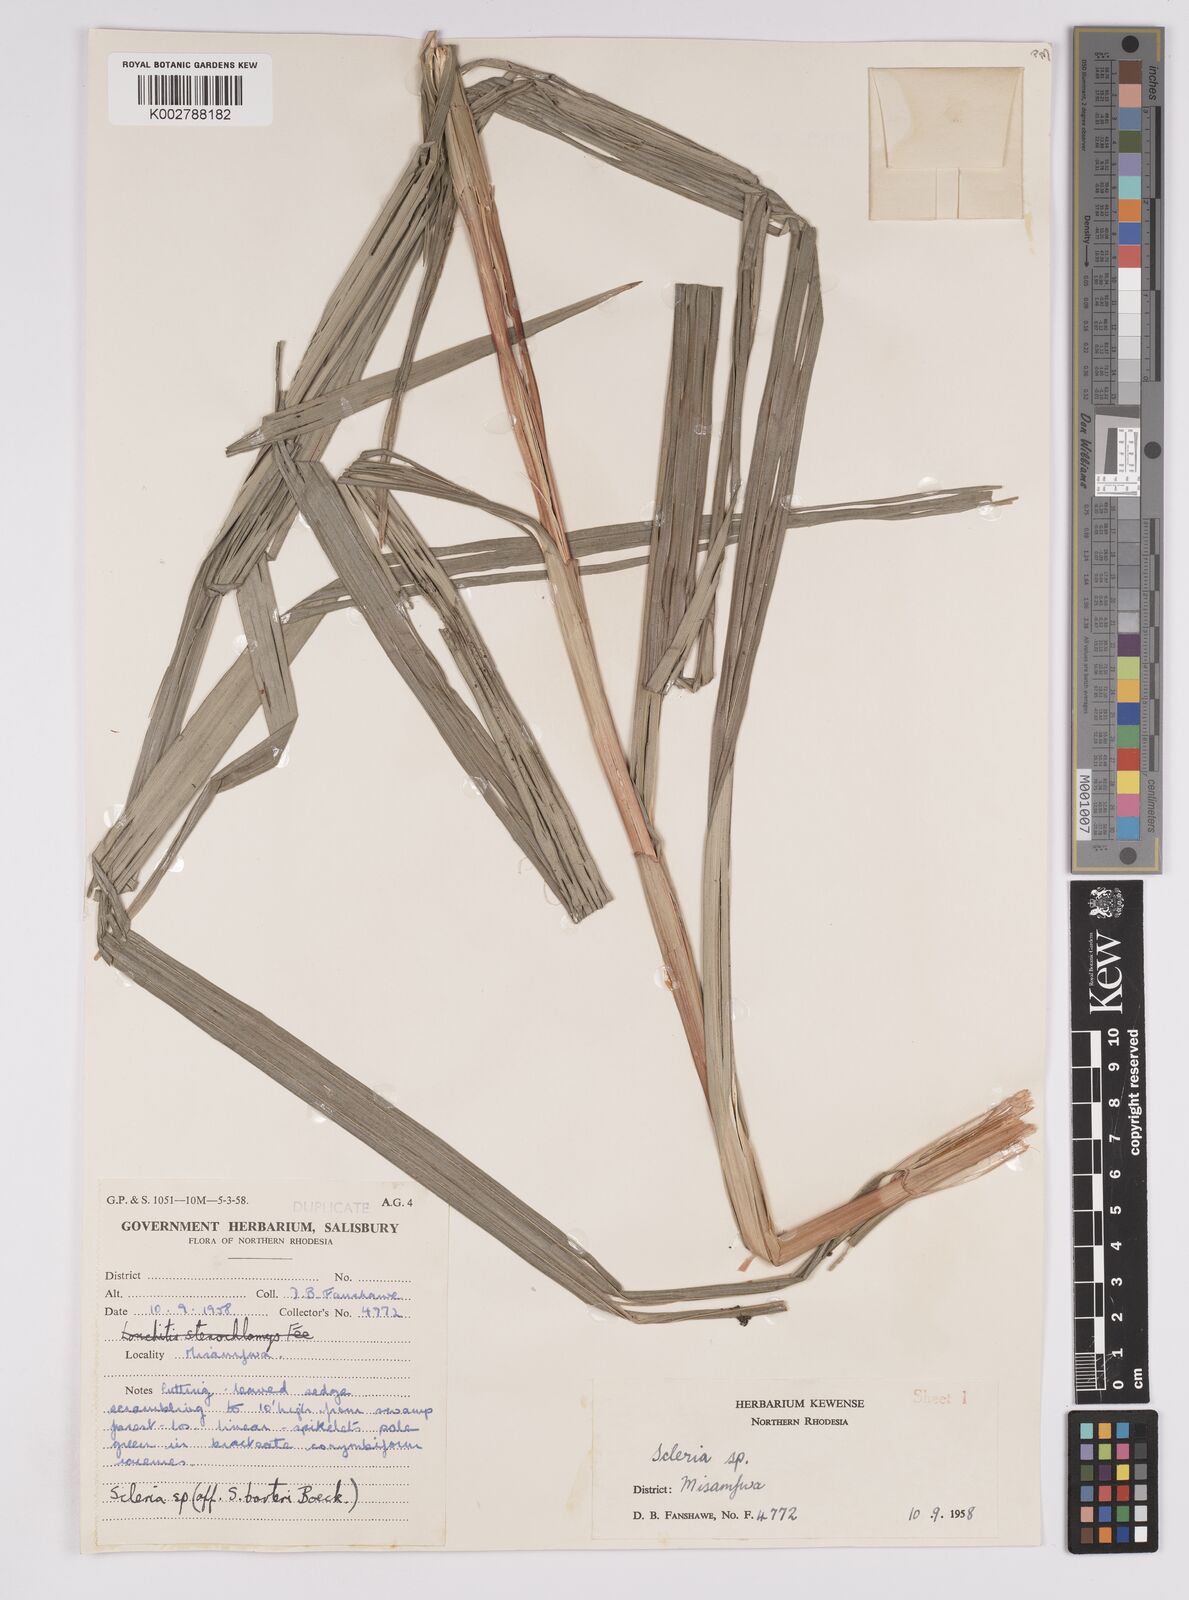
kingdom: Plantae
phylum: Tracheophyta
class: Liliopsida
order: Poales
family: Cyperaceae
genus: Scleria
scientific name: Scleria porphyrocarpa
